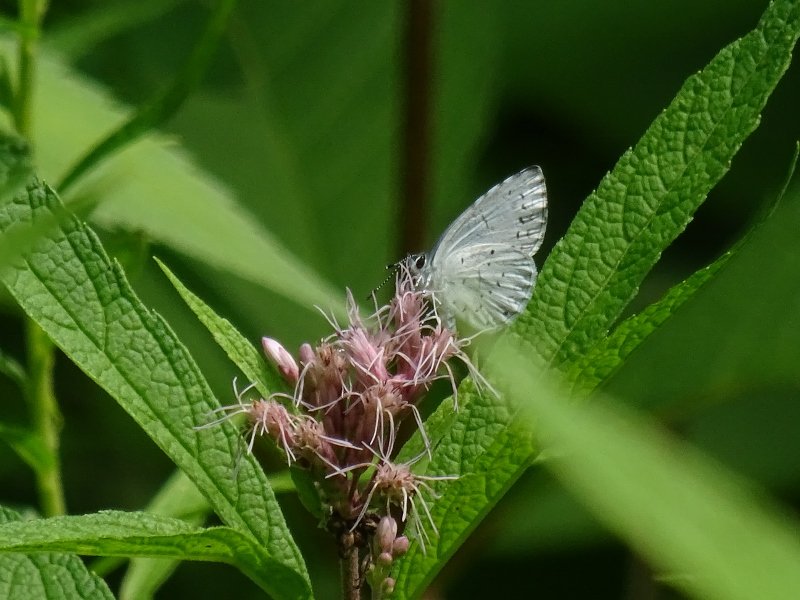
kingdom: Animalia
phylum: Arthropoda
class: Insecta
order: Lepidoptera
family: Lycaenidae
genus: Celastrina
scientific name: Celastrina
